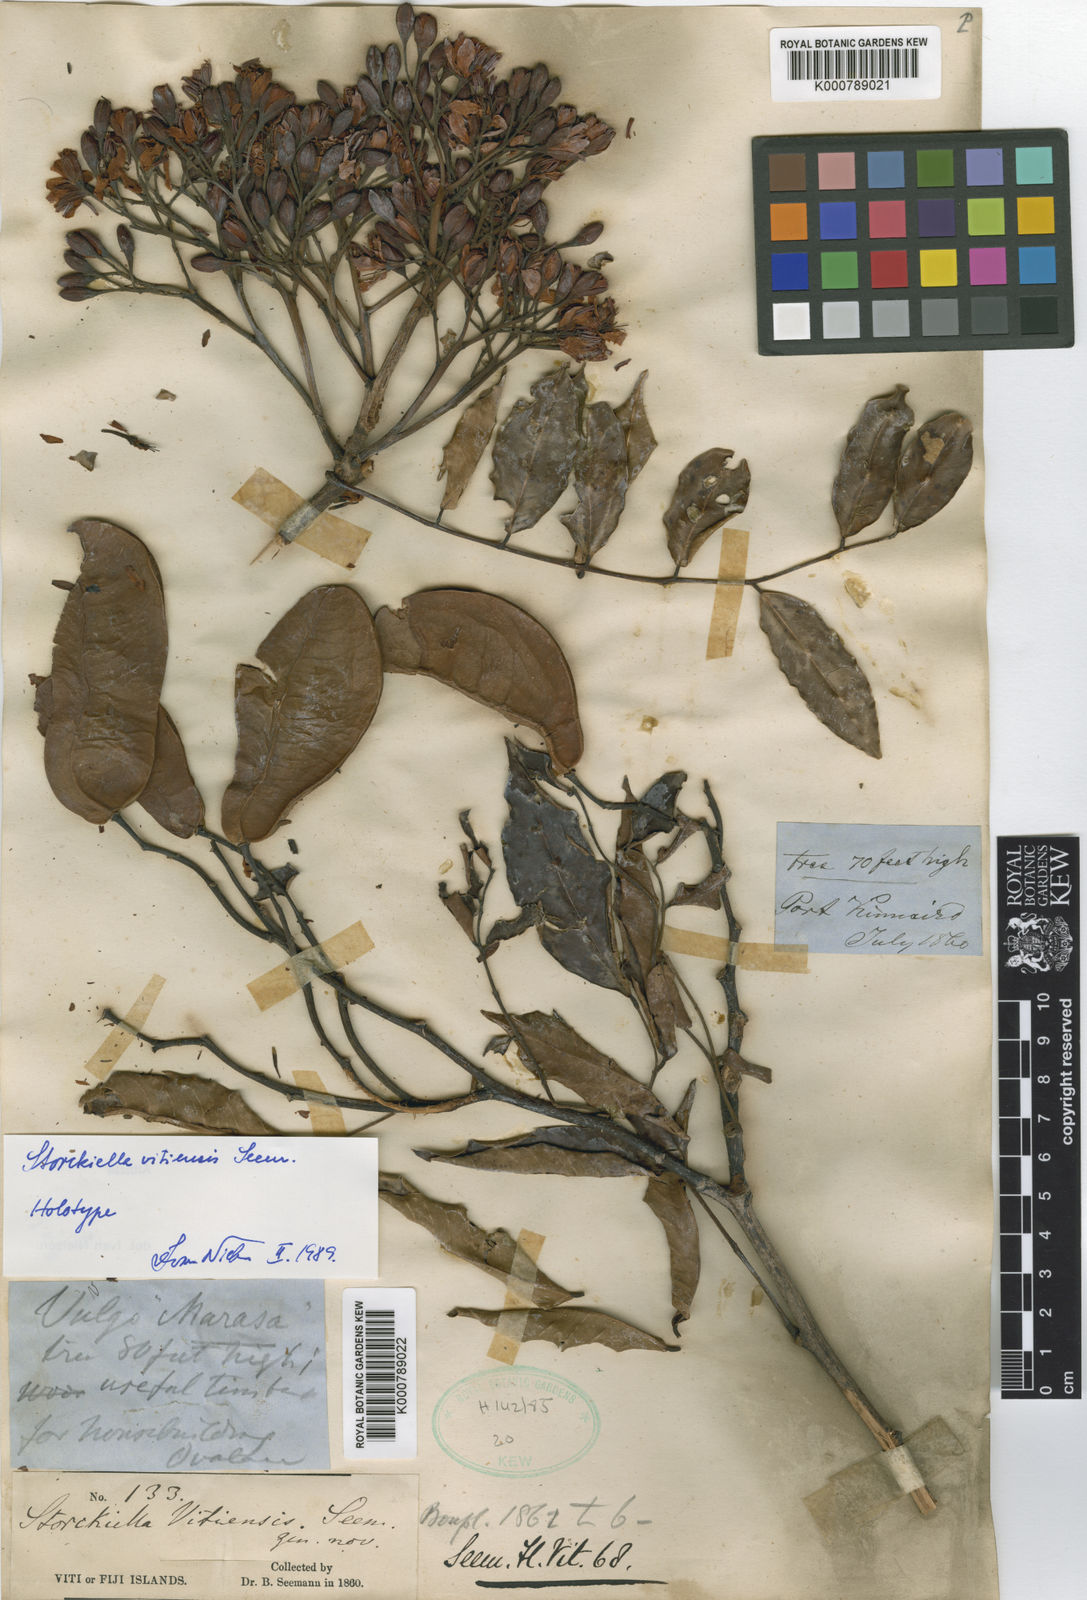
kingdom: Plantae
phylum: Tracheophyta
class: Magnoliopsida
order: Fabales
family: Fabaceae
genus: Storckiella
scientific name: Storckiella vitiensis
